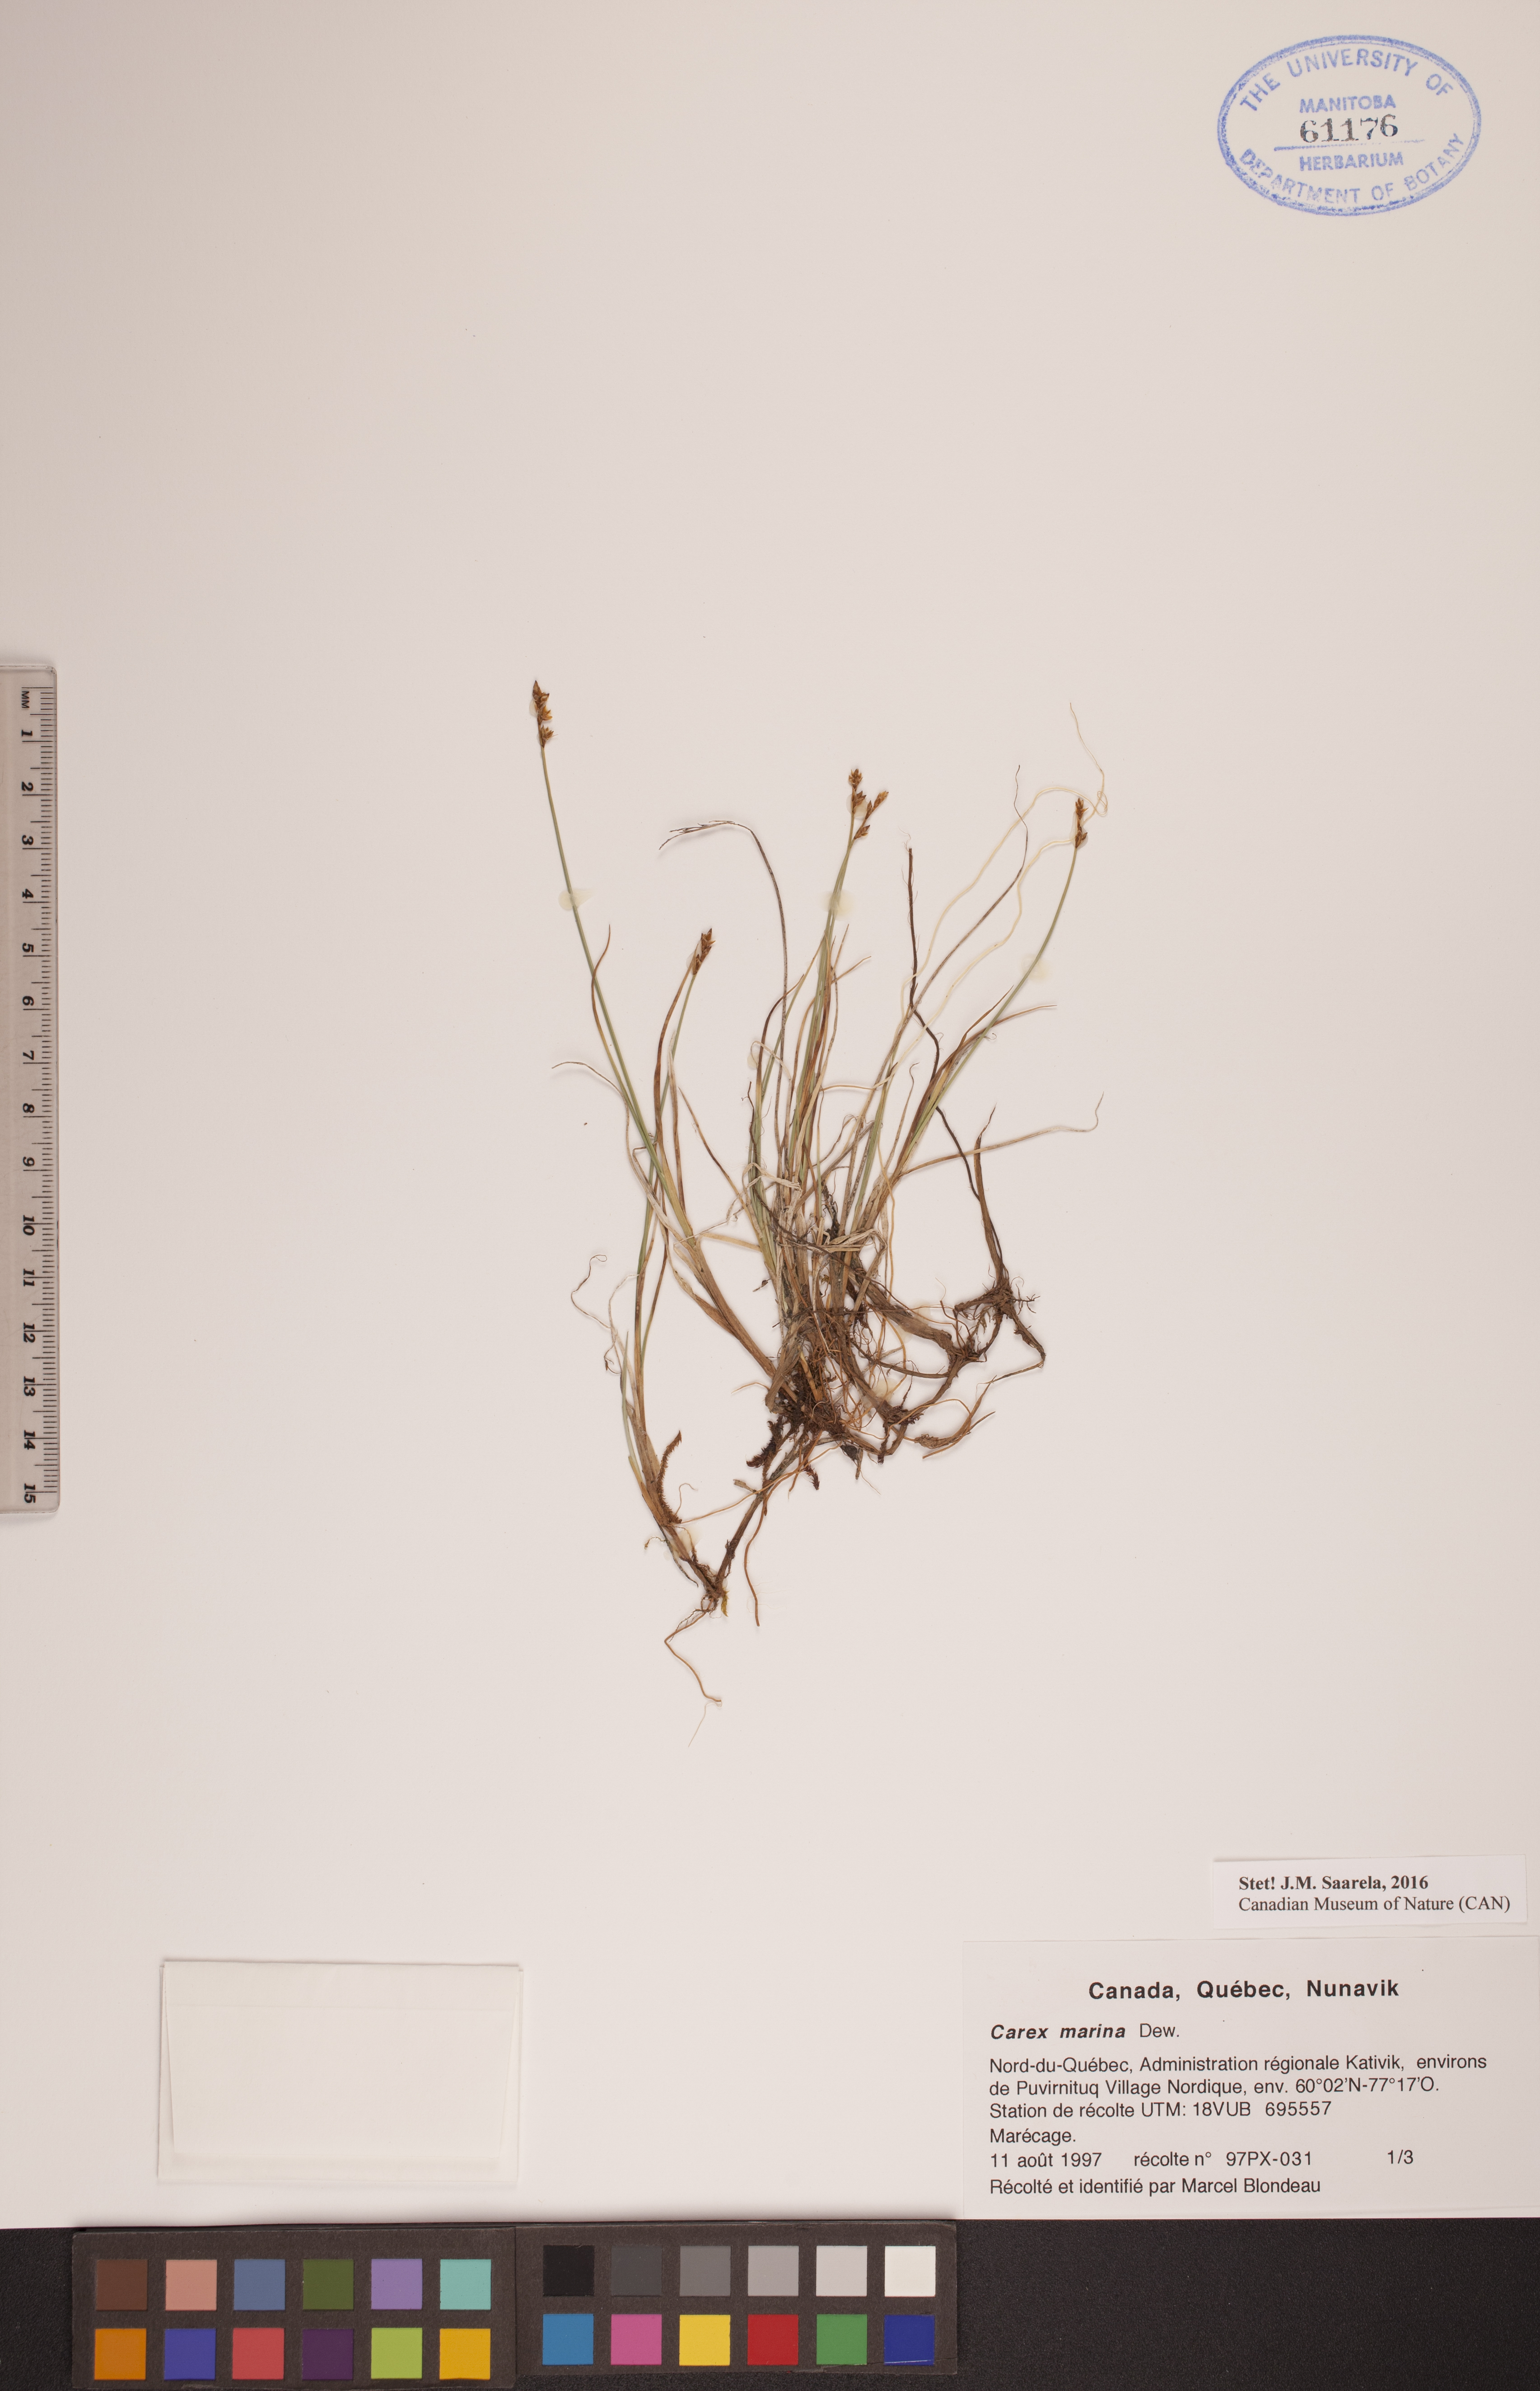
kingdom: Plantae
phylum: Tracheophyta
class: Liliopsida
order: Poales
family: Cyperaceae
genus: Carex
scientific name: Carex marina
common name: Seashore sedge
